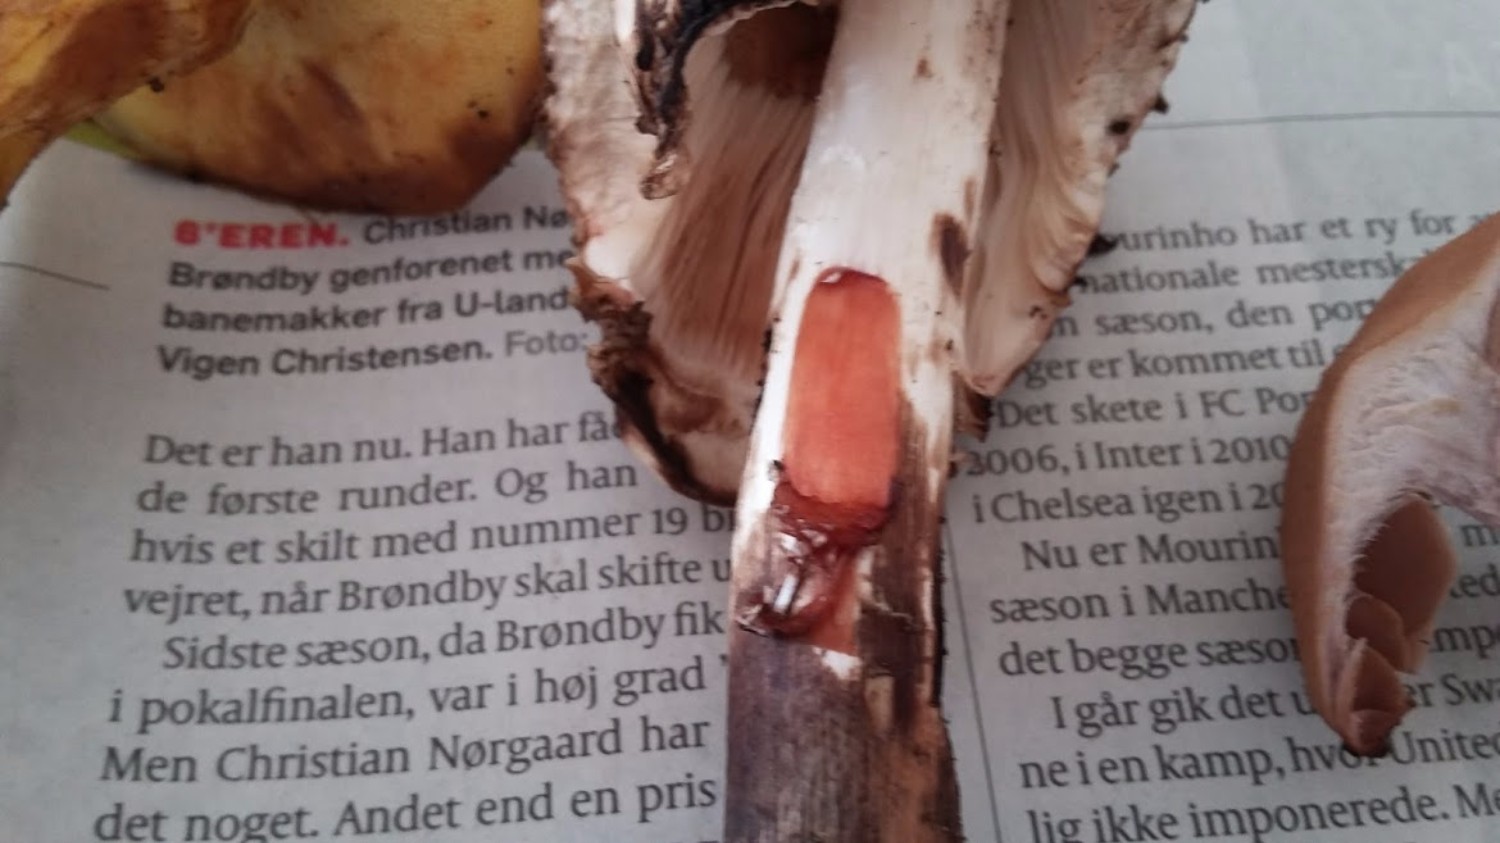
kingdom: Fungi
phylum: Basidiomycota
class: Agaricomycetes
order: Agaricales
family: Agaricaceae
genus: Chlorophyllum
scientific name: Chlorophyllum olivieri
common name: almindelig rabarberhat
